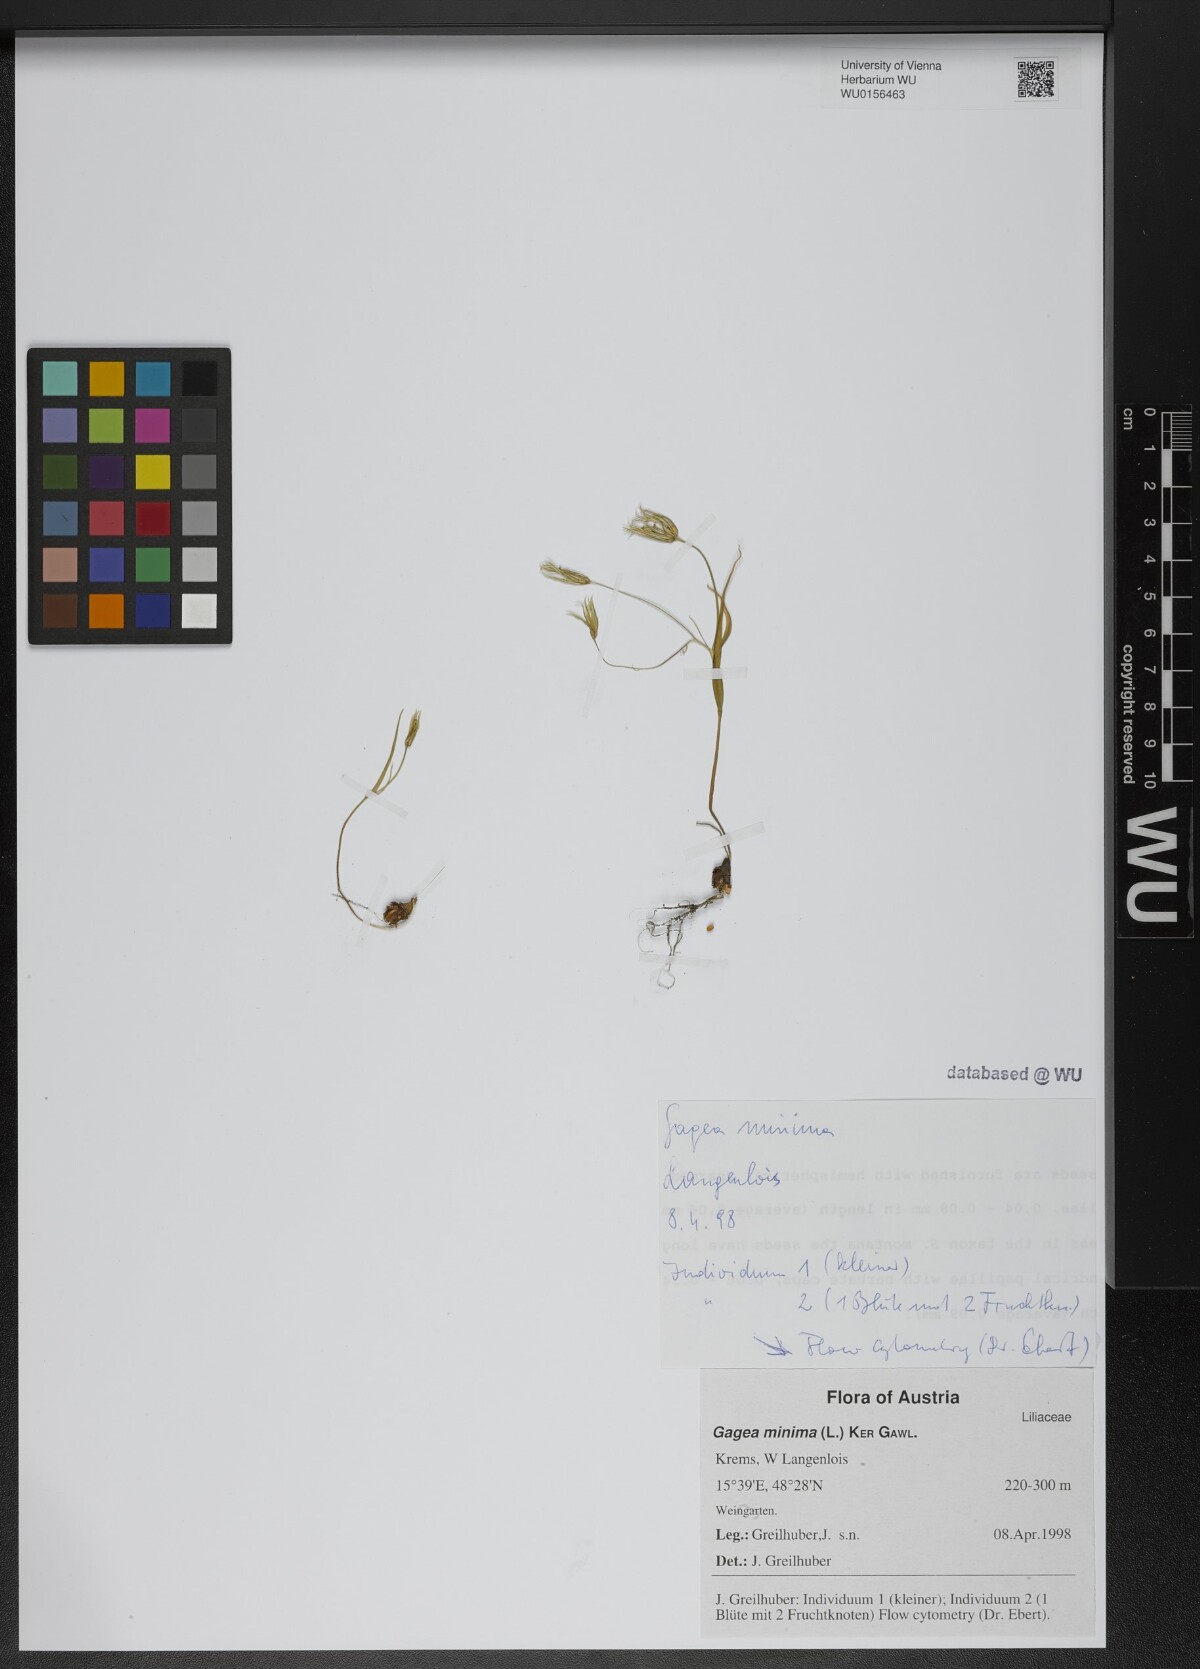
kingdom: Plantae
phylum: Tracheophyta
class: Liliopsida
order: Liliales
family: Liliaceae
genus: Gagea
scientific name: Gagea minima
